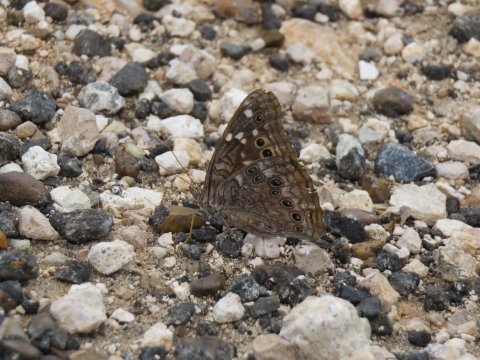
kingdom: Animalia
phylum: Arthropoda
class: Insecta
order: Lepidoptera
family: Nymphalidae
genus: Asterocampa
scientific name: Asterocampa leilia
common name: Empress Leilia
